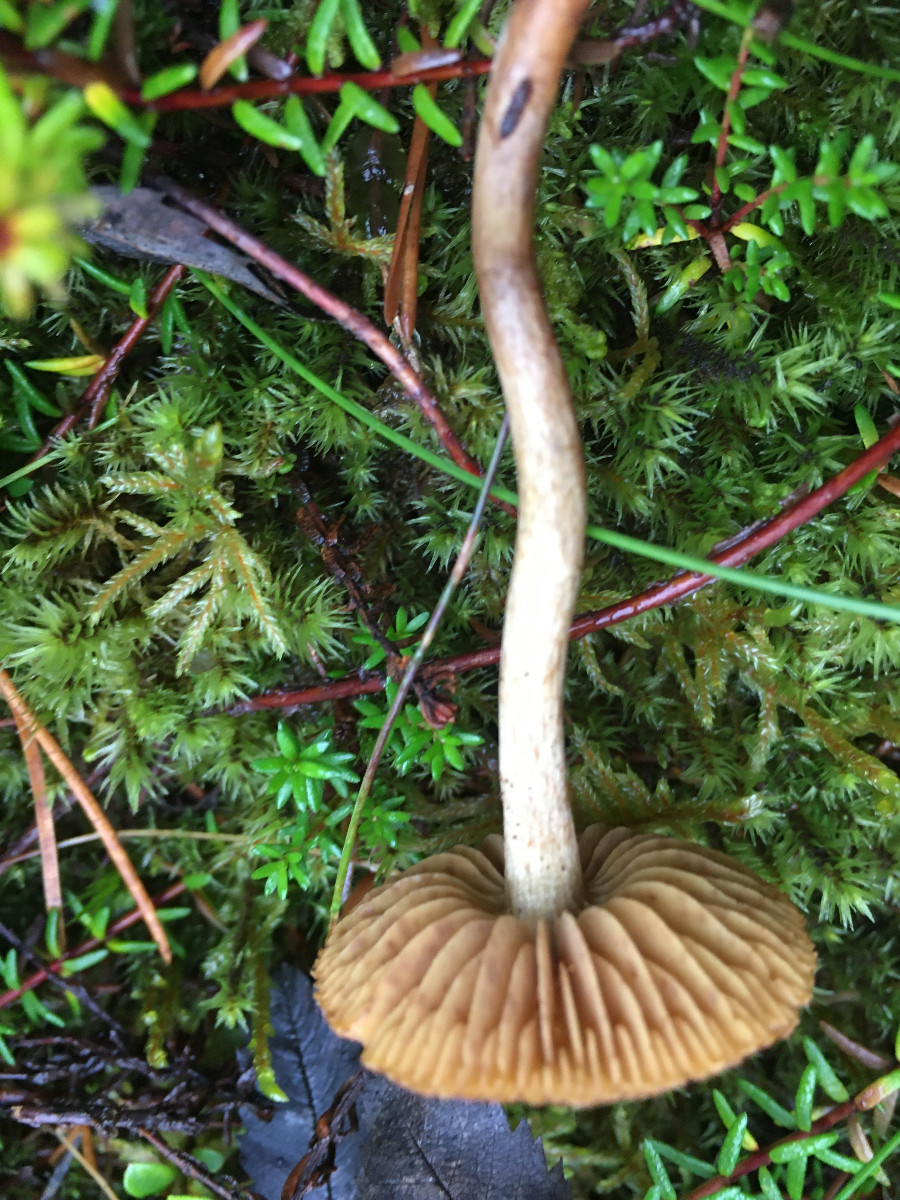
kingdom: Fungi
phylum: Basidiomycota
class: Agaricomycetes
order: Agaricales
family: Cortinariaceae
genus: Cortinarius
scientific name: Cortinarius
